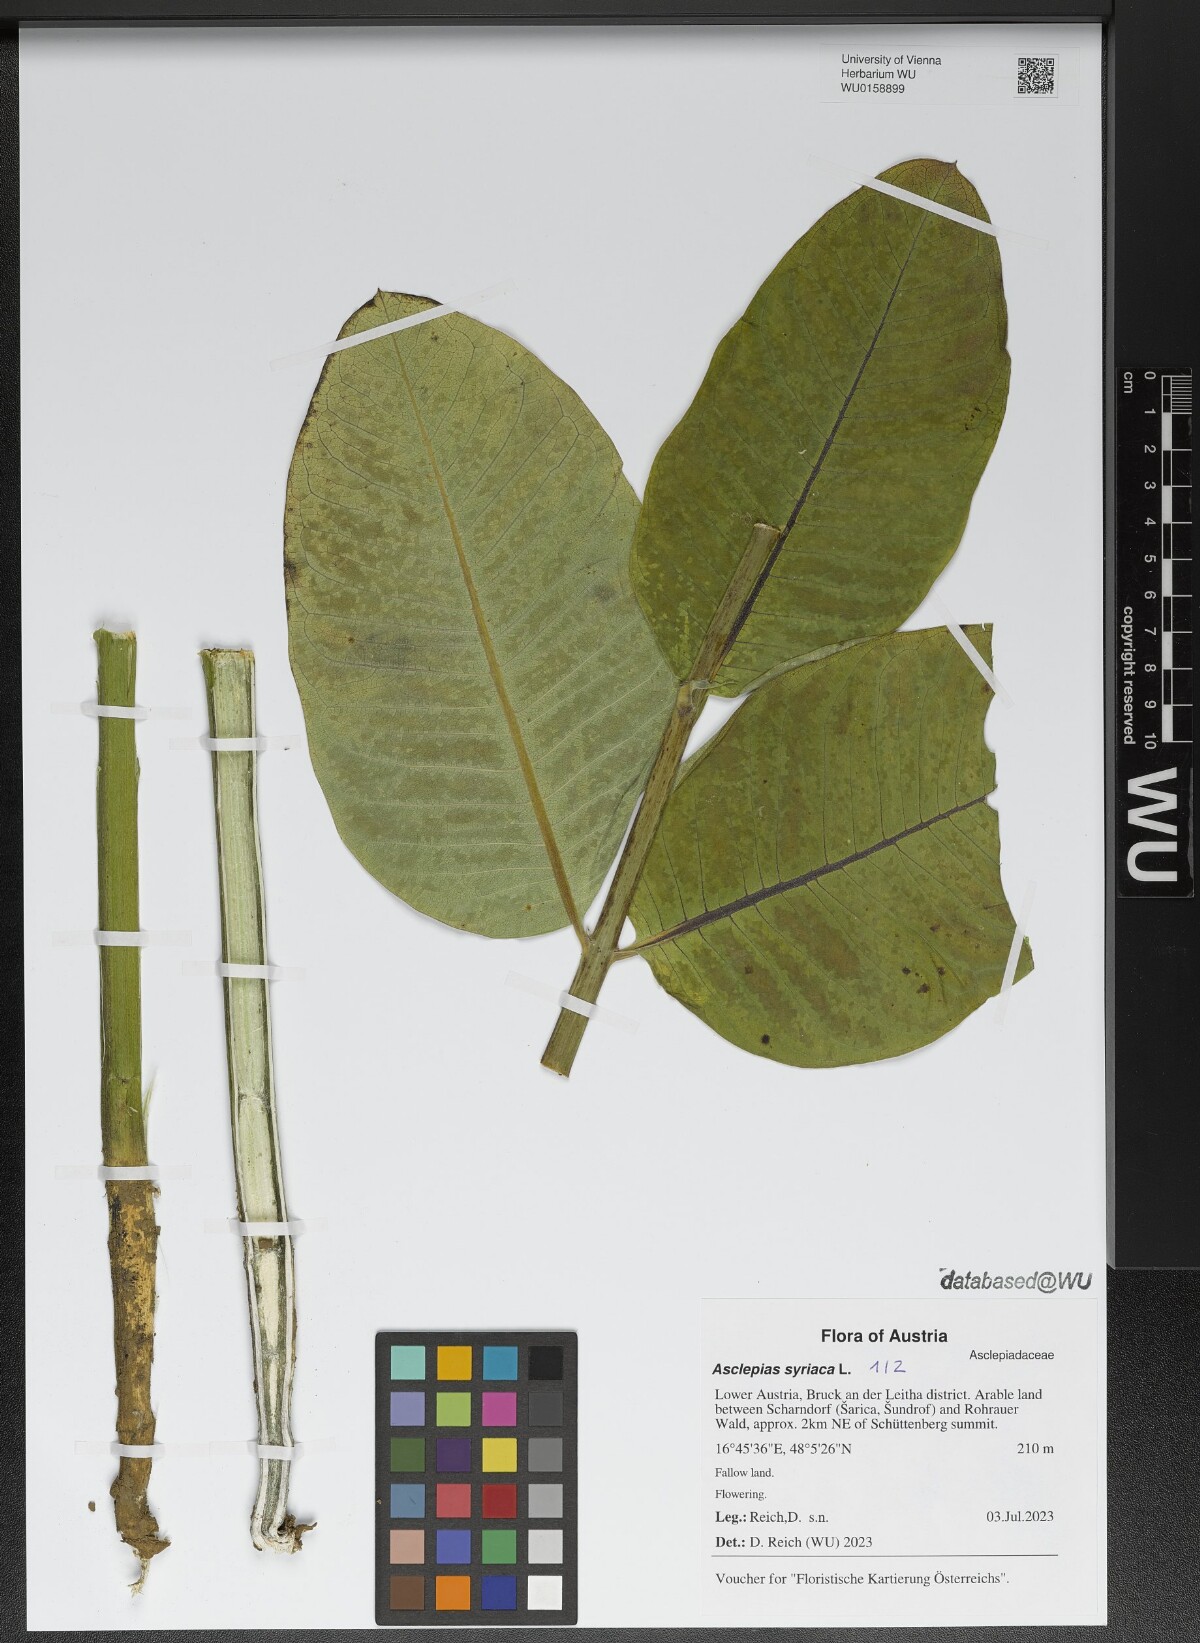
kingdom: Plantae
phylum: Tracheophyta
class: Magnoliopsida
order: Gentianales
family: Apocynaceae
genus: Asclepias
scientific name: Asclepias syriaca
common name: Common milkweed
